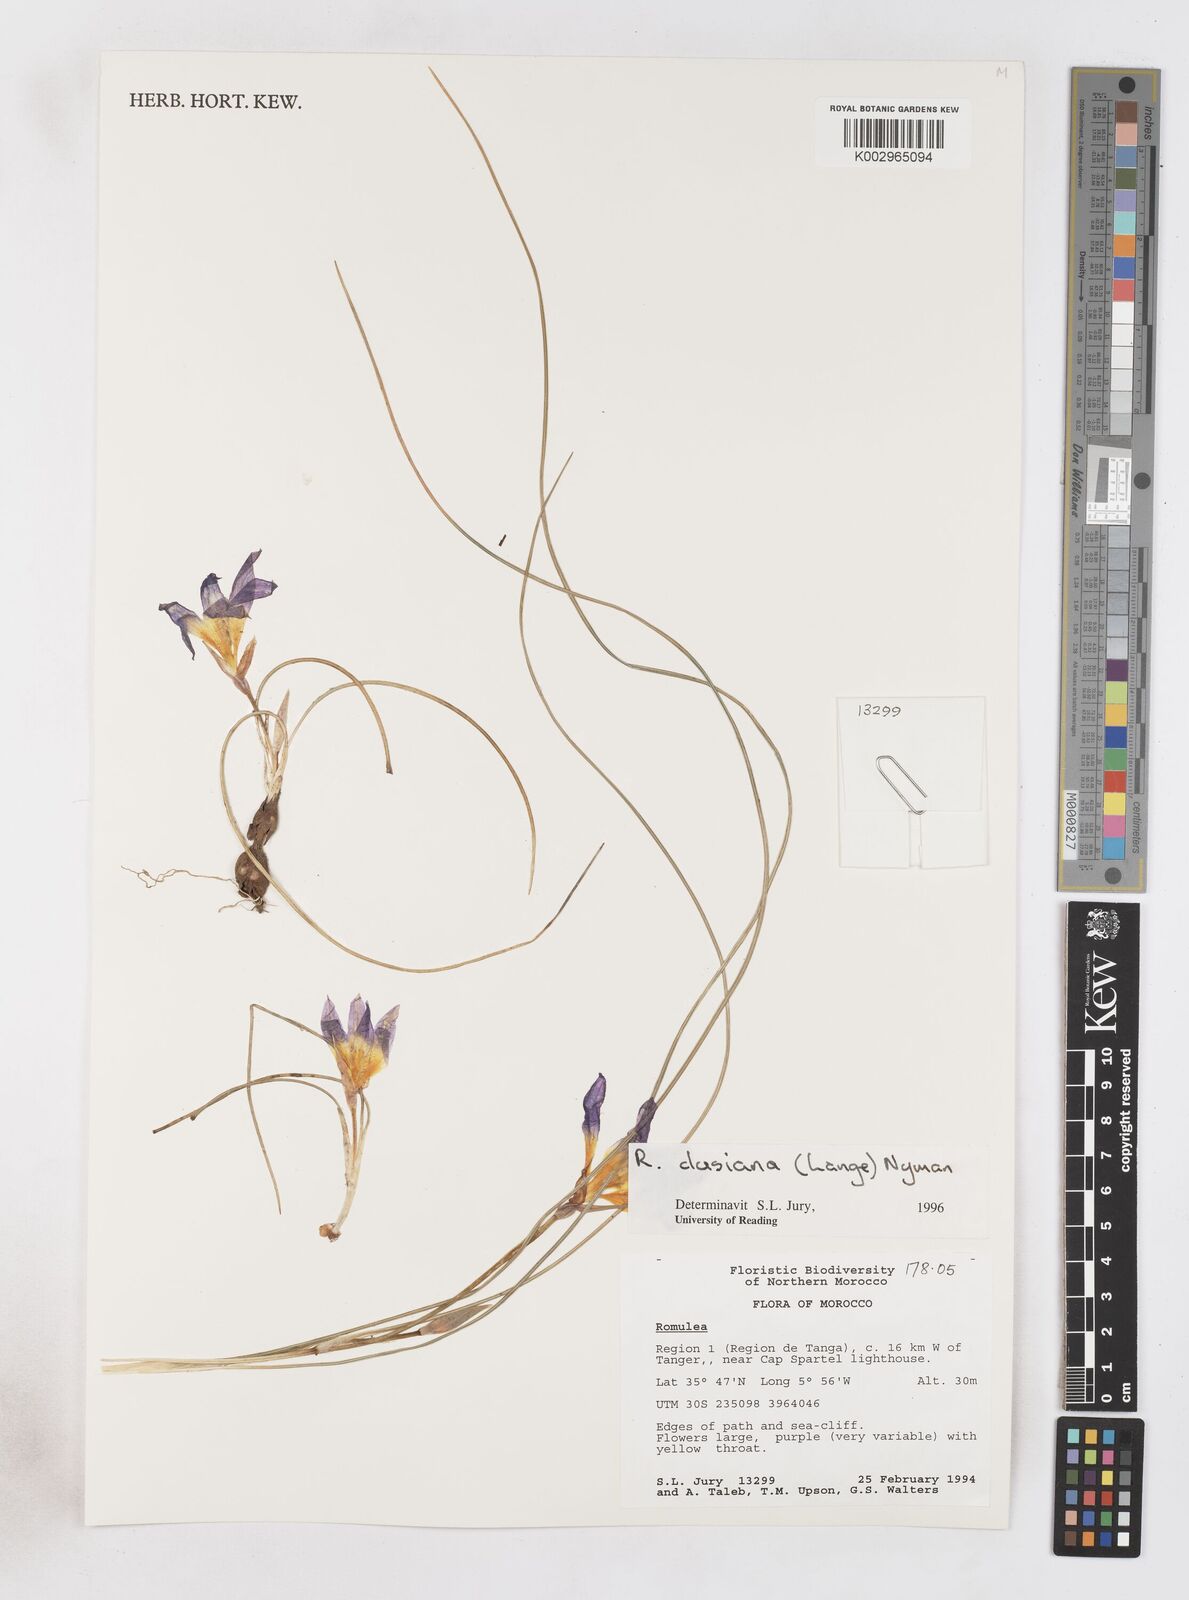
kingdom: Plantae
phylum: Tracheophyta
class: Liliopsida
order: Asparagales
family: Iridaceae
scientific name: Iridaceae
